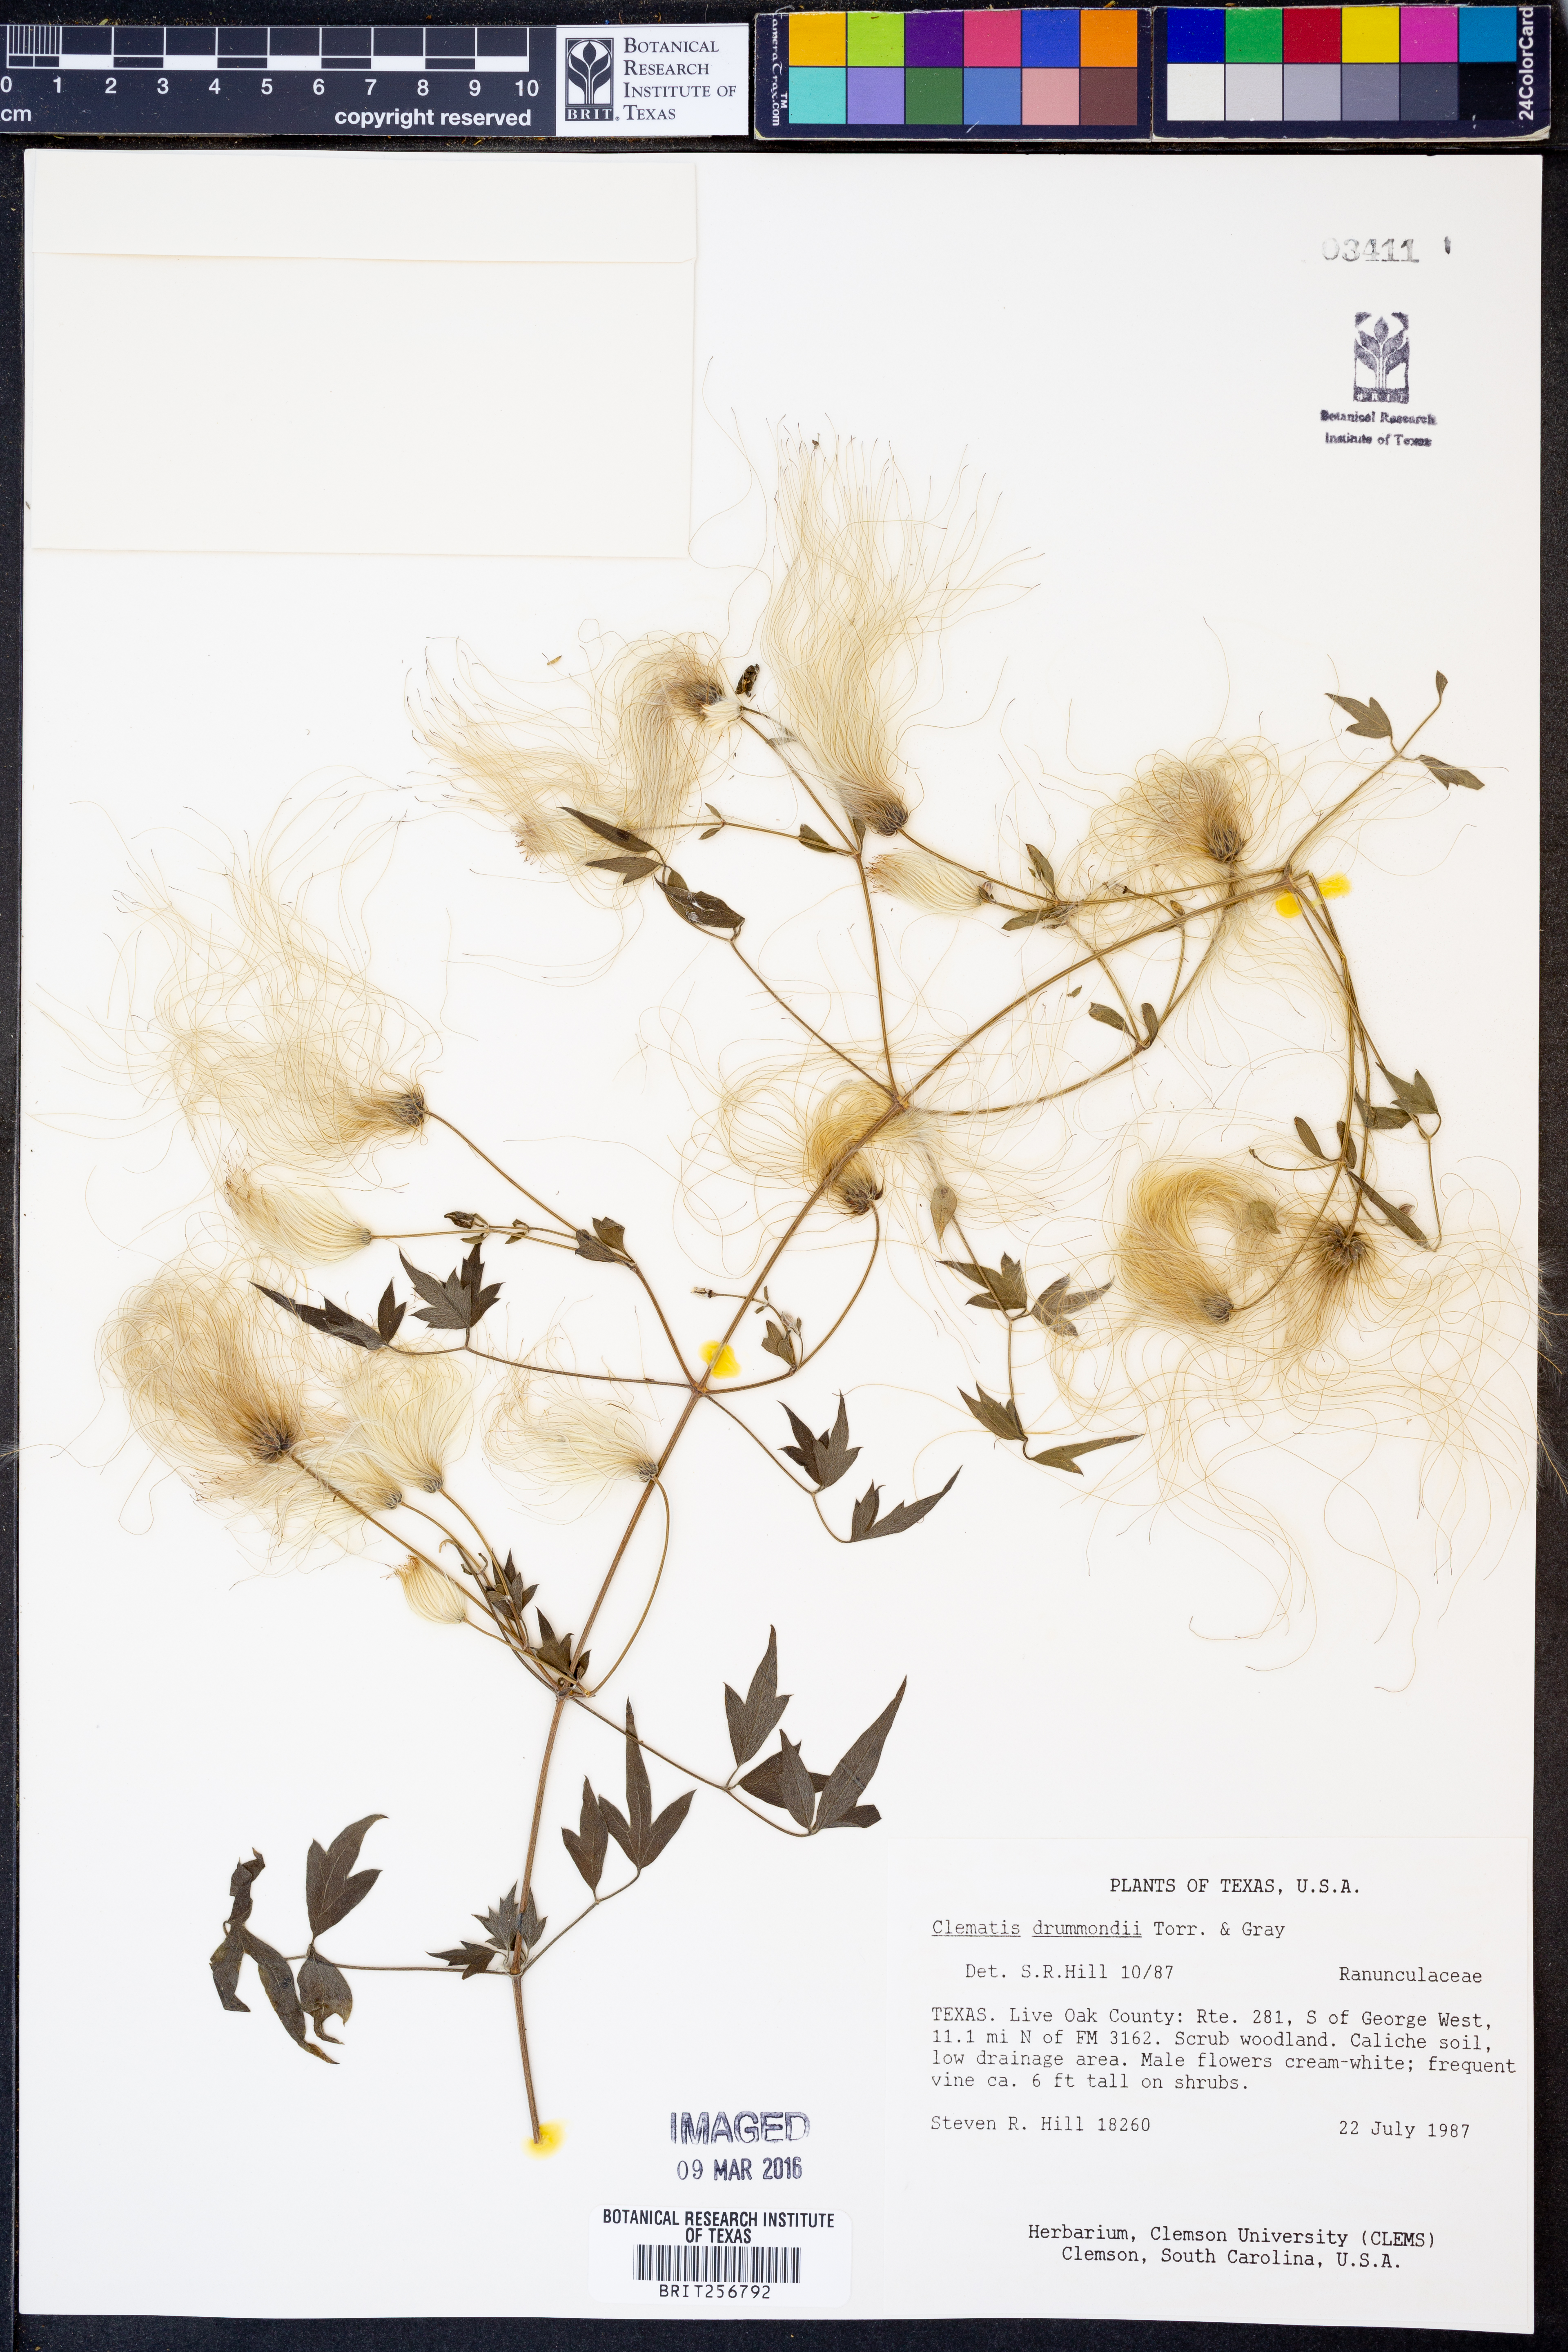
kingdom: Plantae
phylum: Tracheophyta
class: Magnoliopsida
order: Ranunculales
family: Ranunculaceae
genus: Clematis
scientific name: Clematis drummondii
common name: Texas virgin's bower
